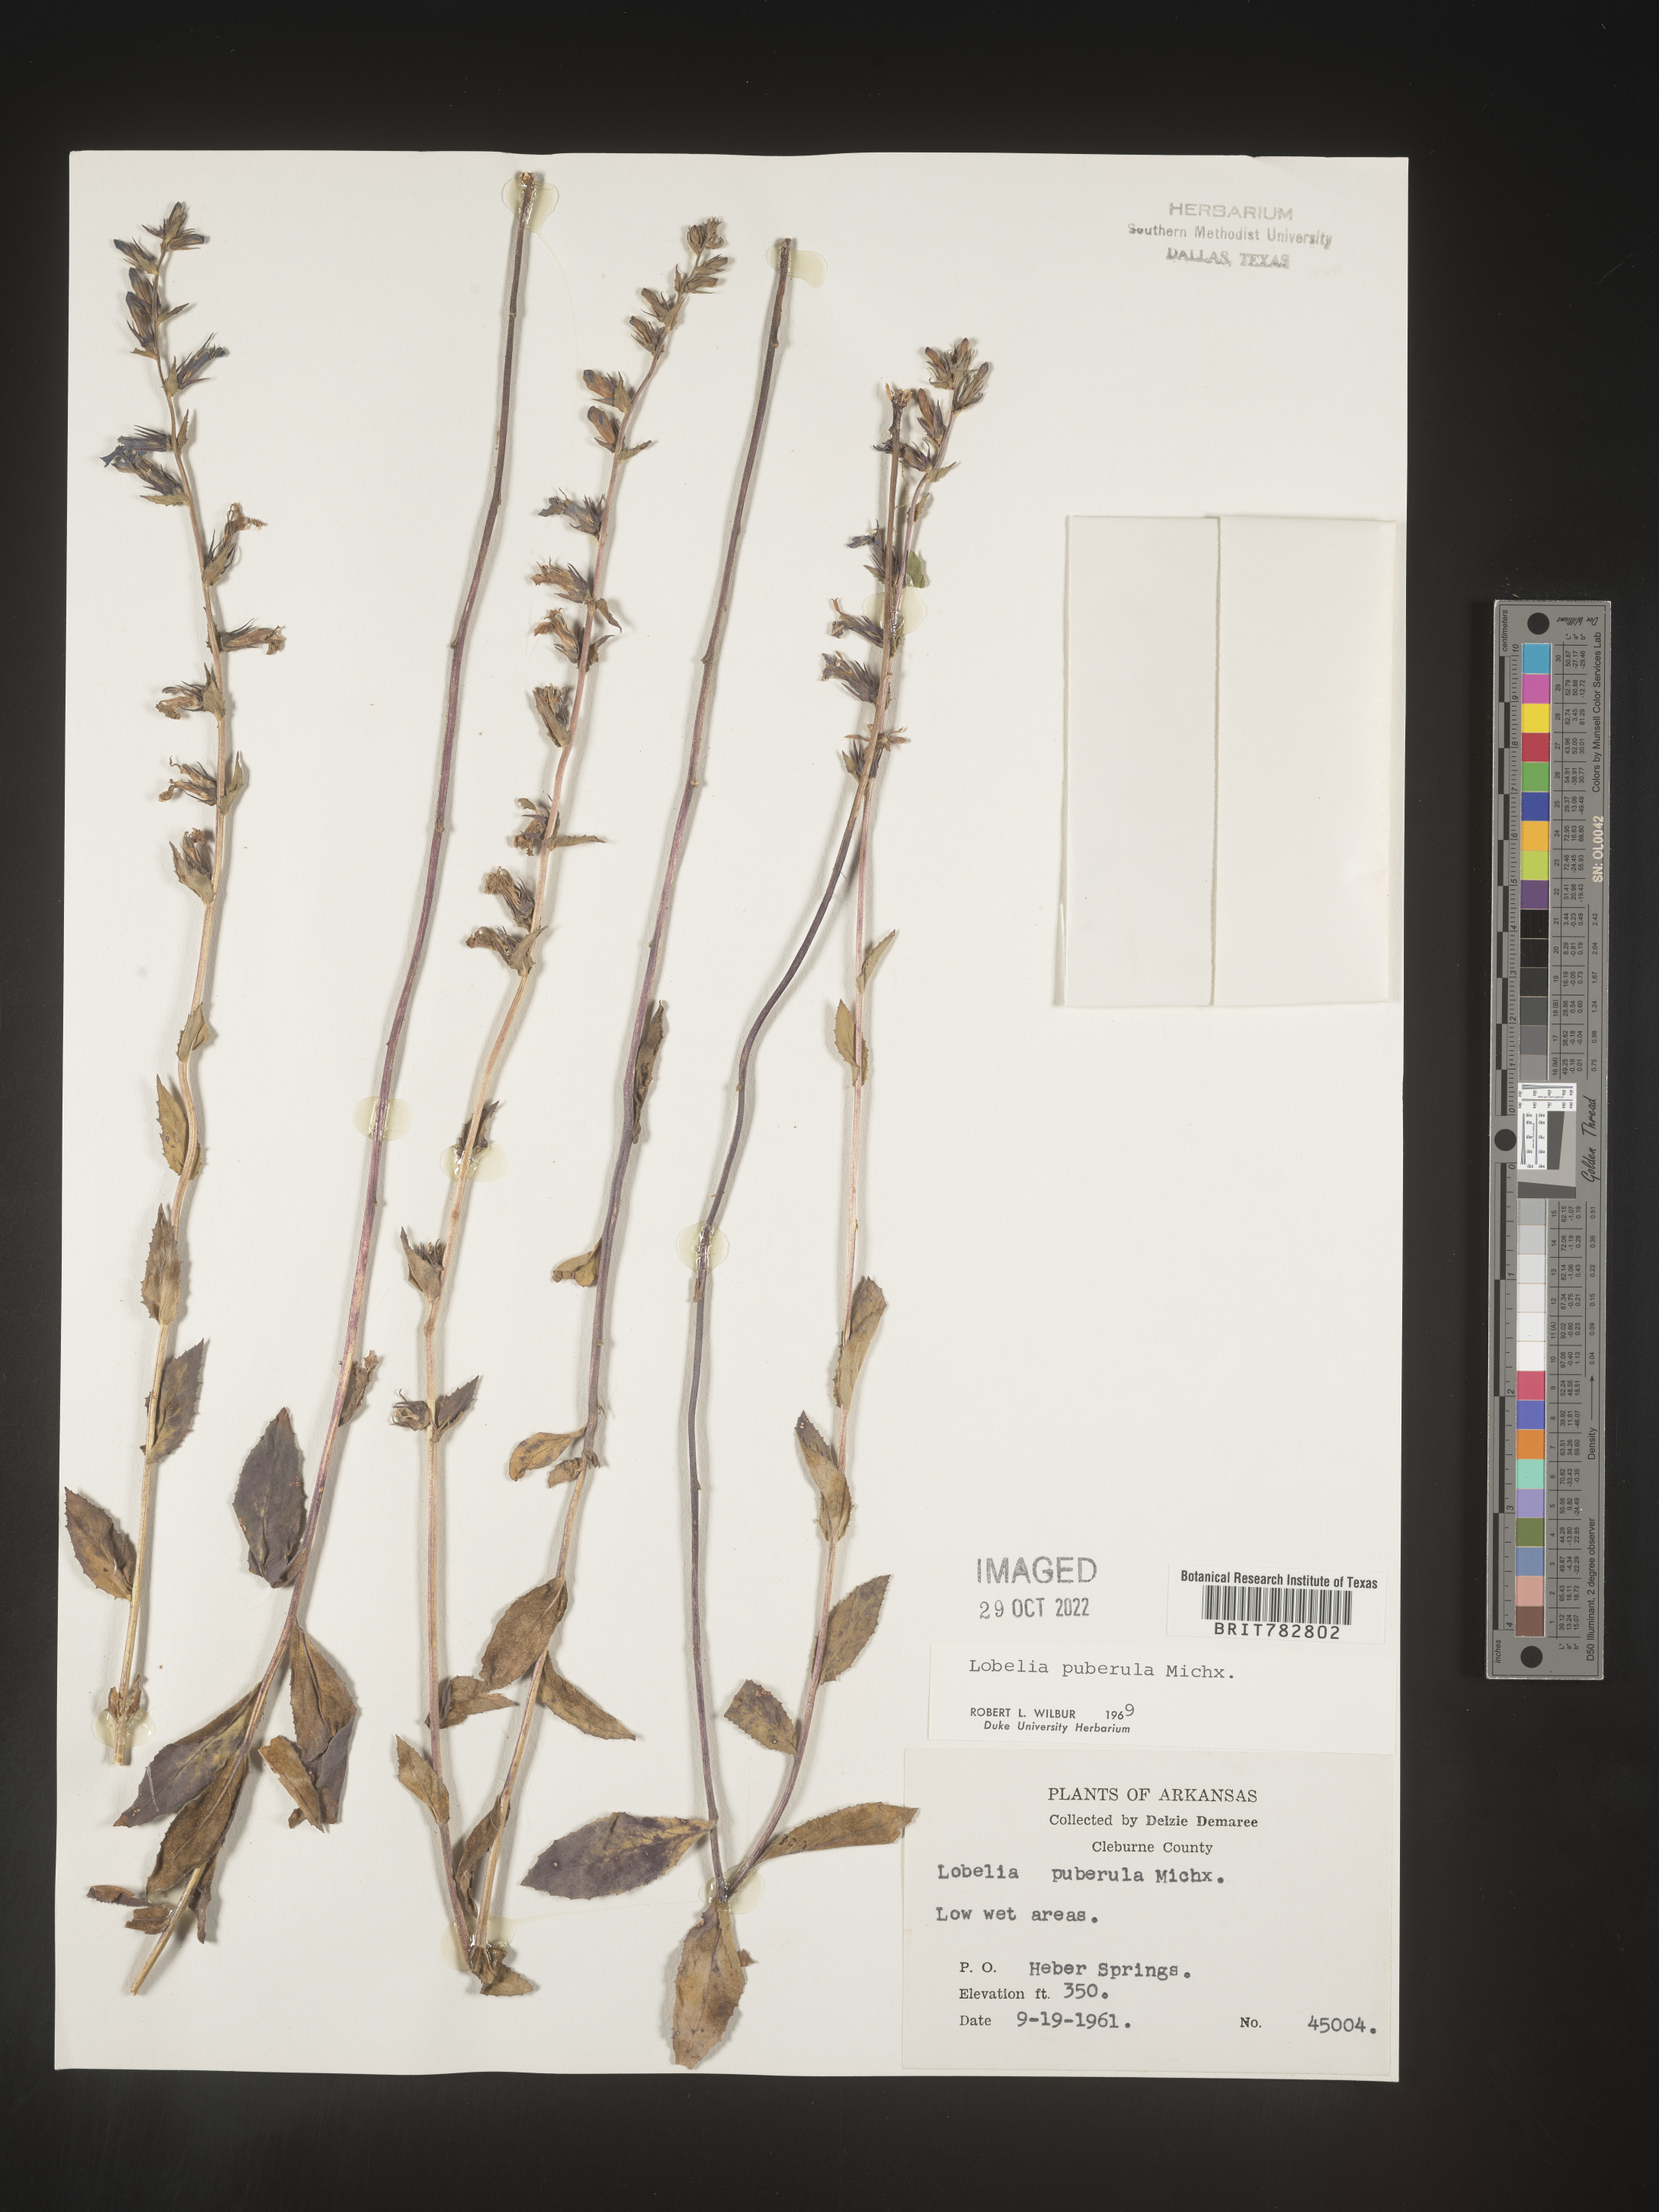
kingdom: Plantae
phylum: Tracheophyta
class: Magnoliopsida
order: Asterales
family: Campanulaceae
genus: Lobelia
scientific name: Lobelia puberula
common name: Purple dewdrop
